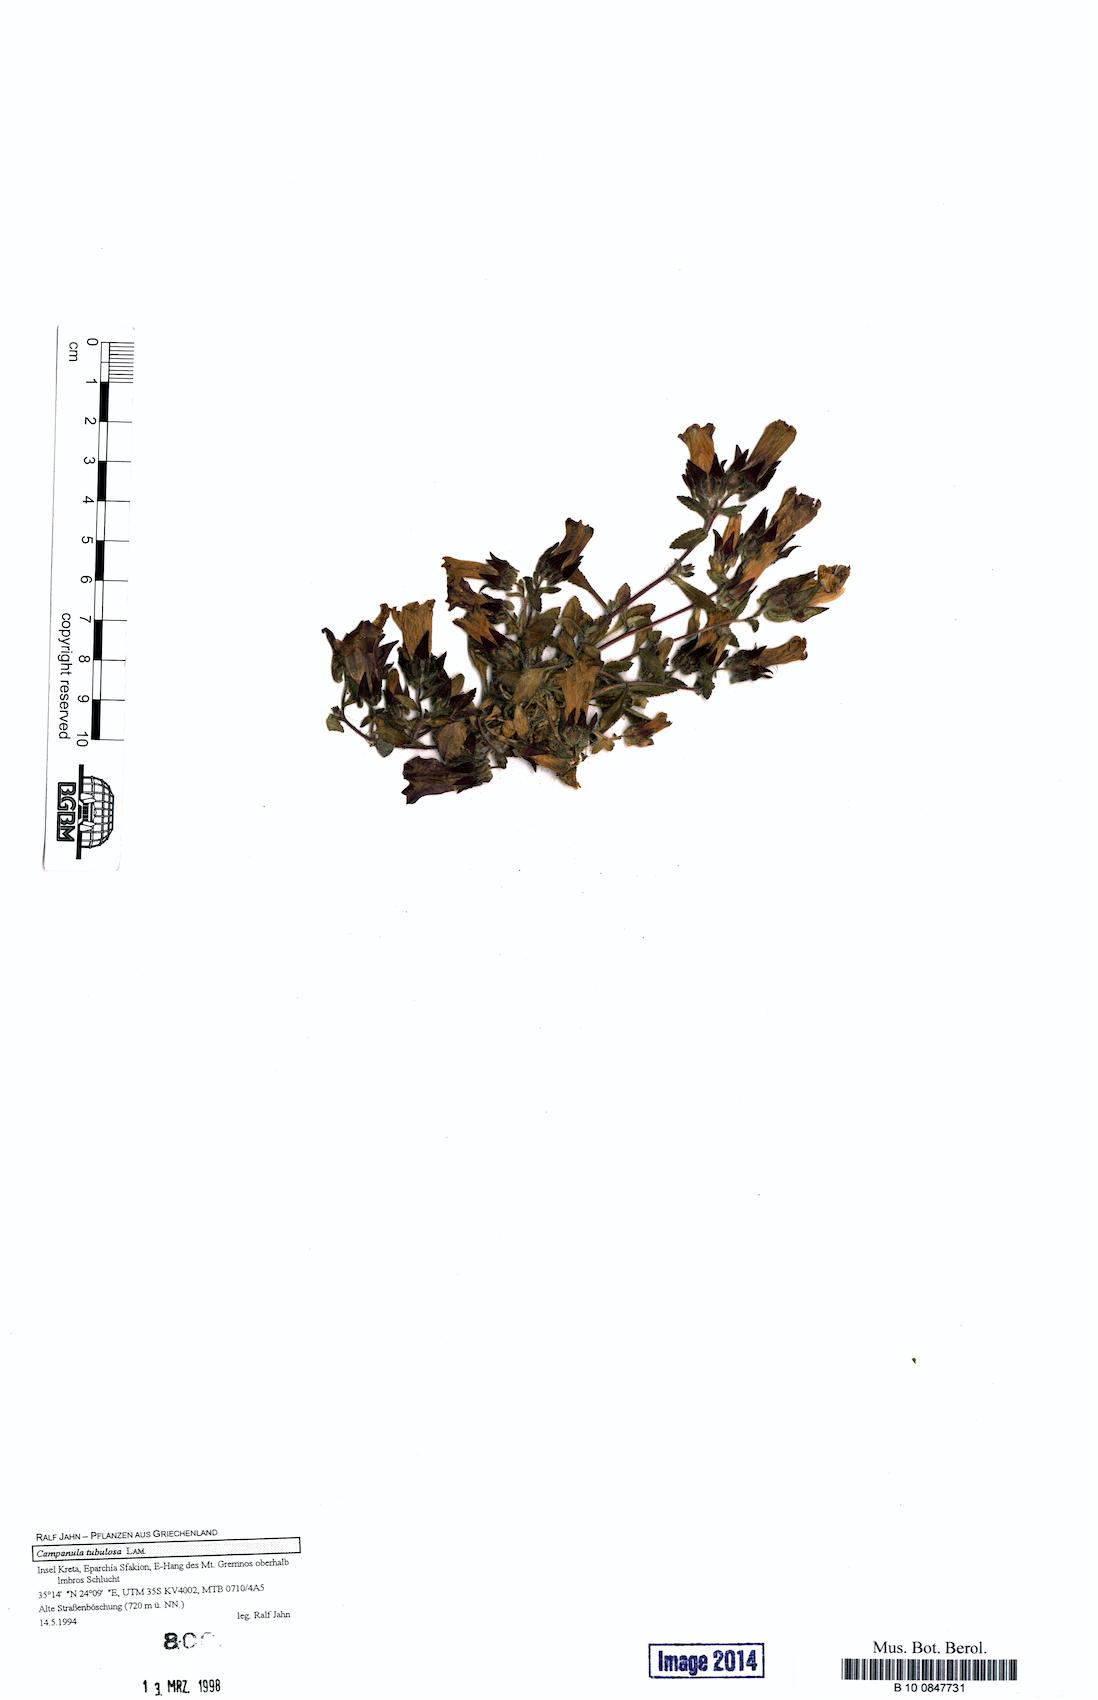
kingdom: Plantae
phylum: Tracheophyta
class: Magnoliopsida
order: Asterales
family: Campanulaceae
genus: Campanula
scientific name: Campanula tubulosa
